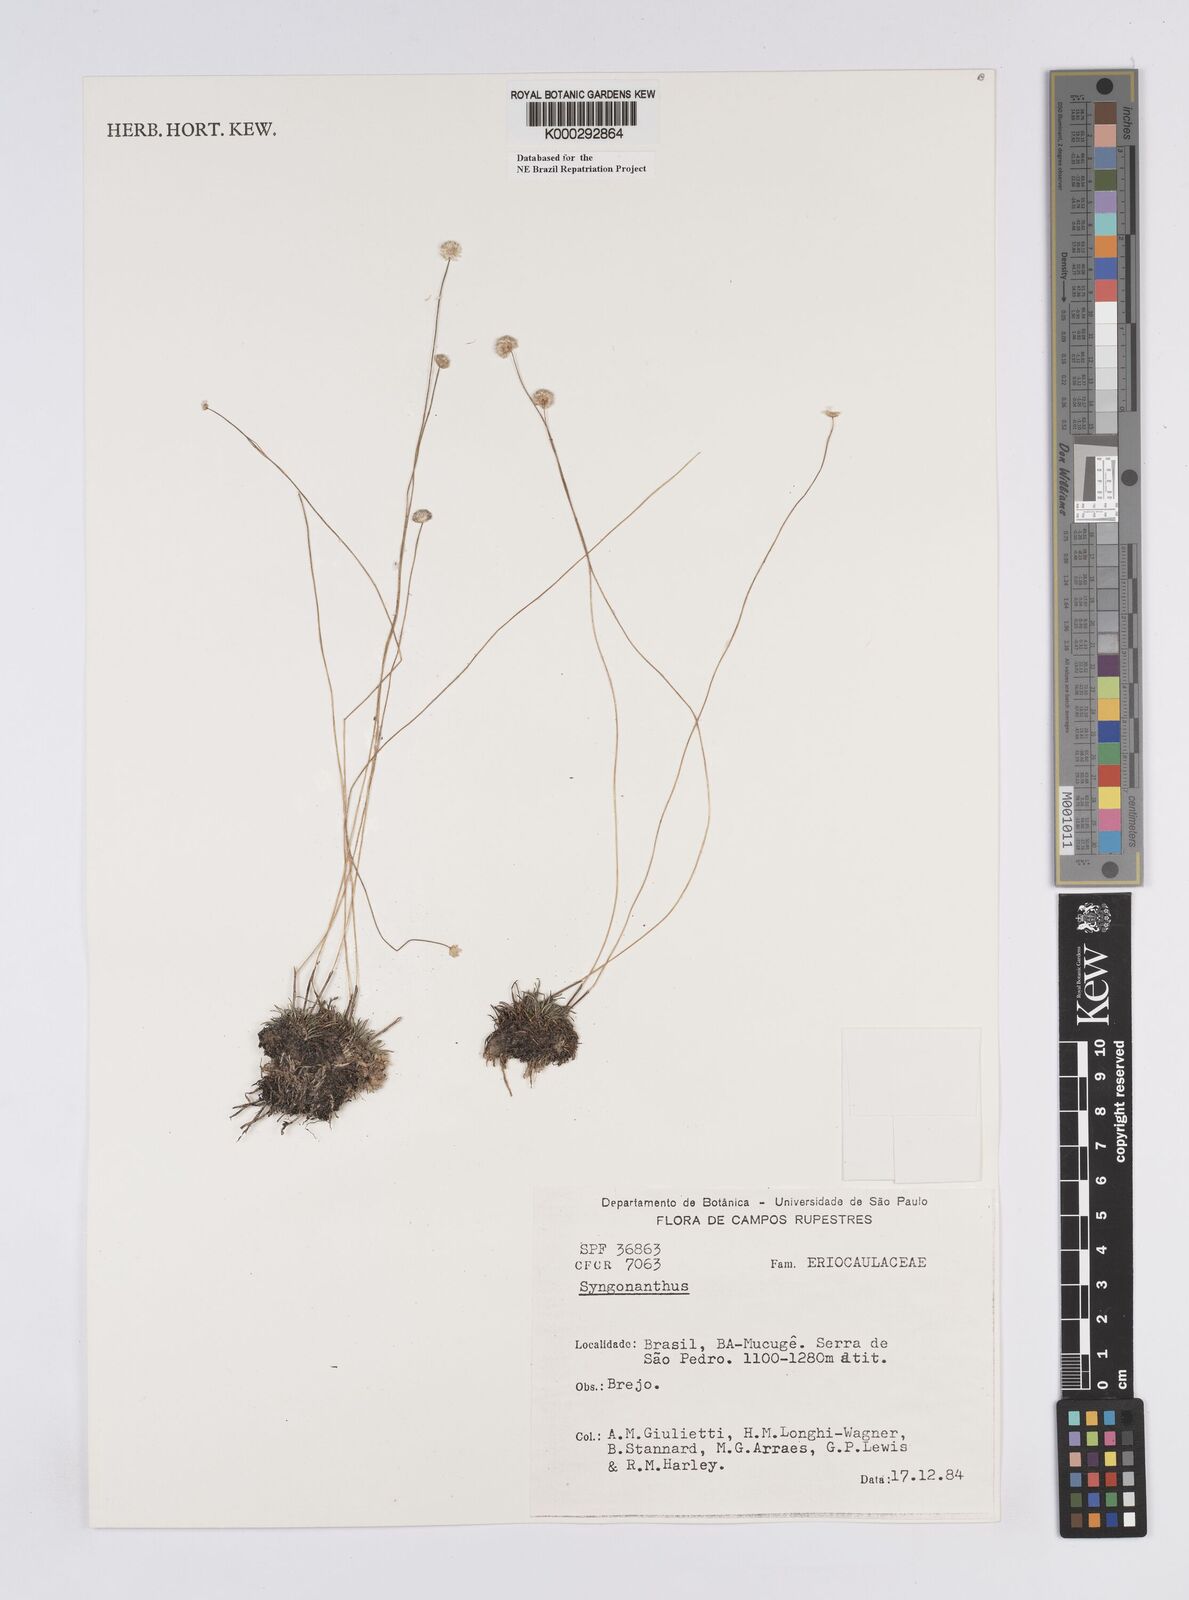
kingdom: Plantae
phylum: Tracheophyta
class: Liliopsida
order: Poales
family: Eriocaulaceae
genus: Syngonanthus
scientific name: Syngonanthus
